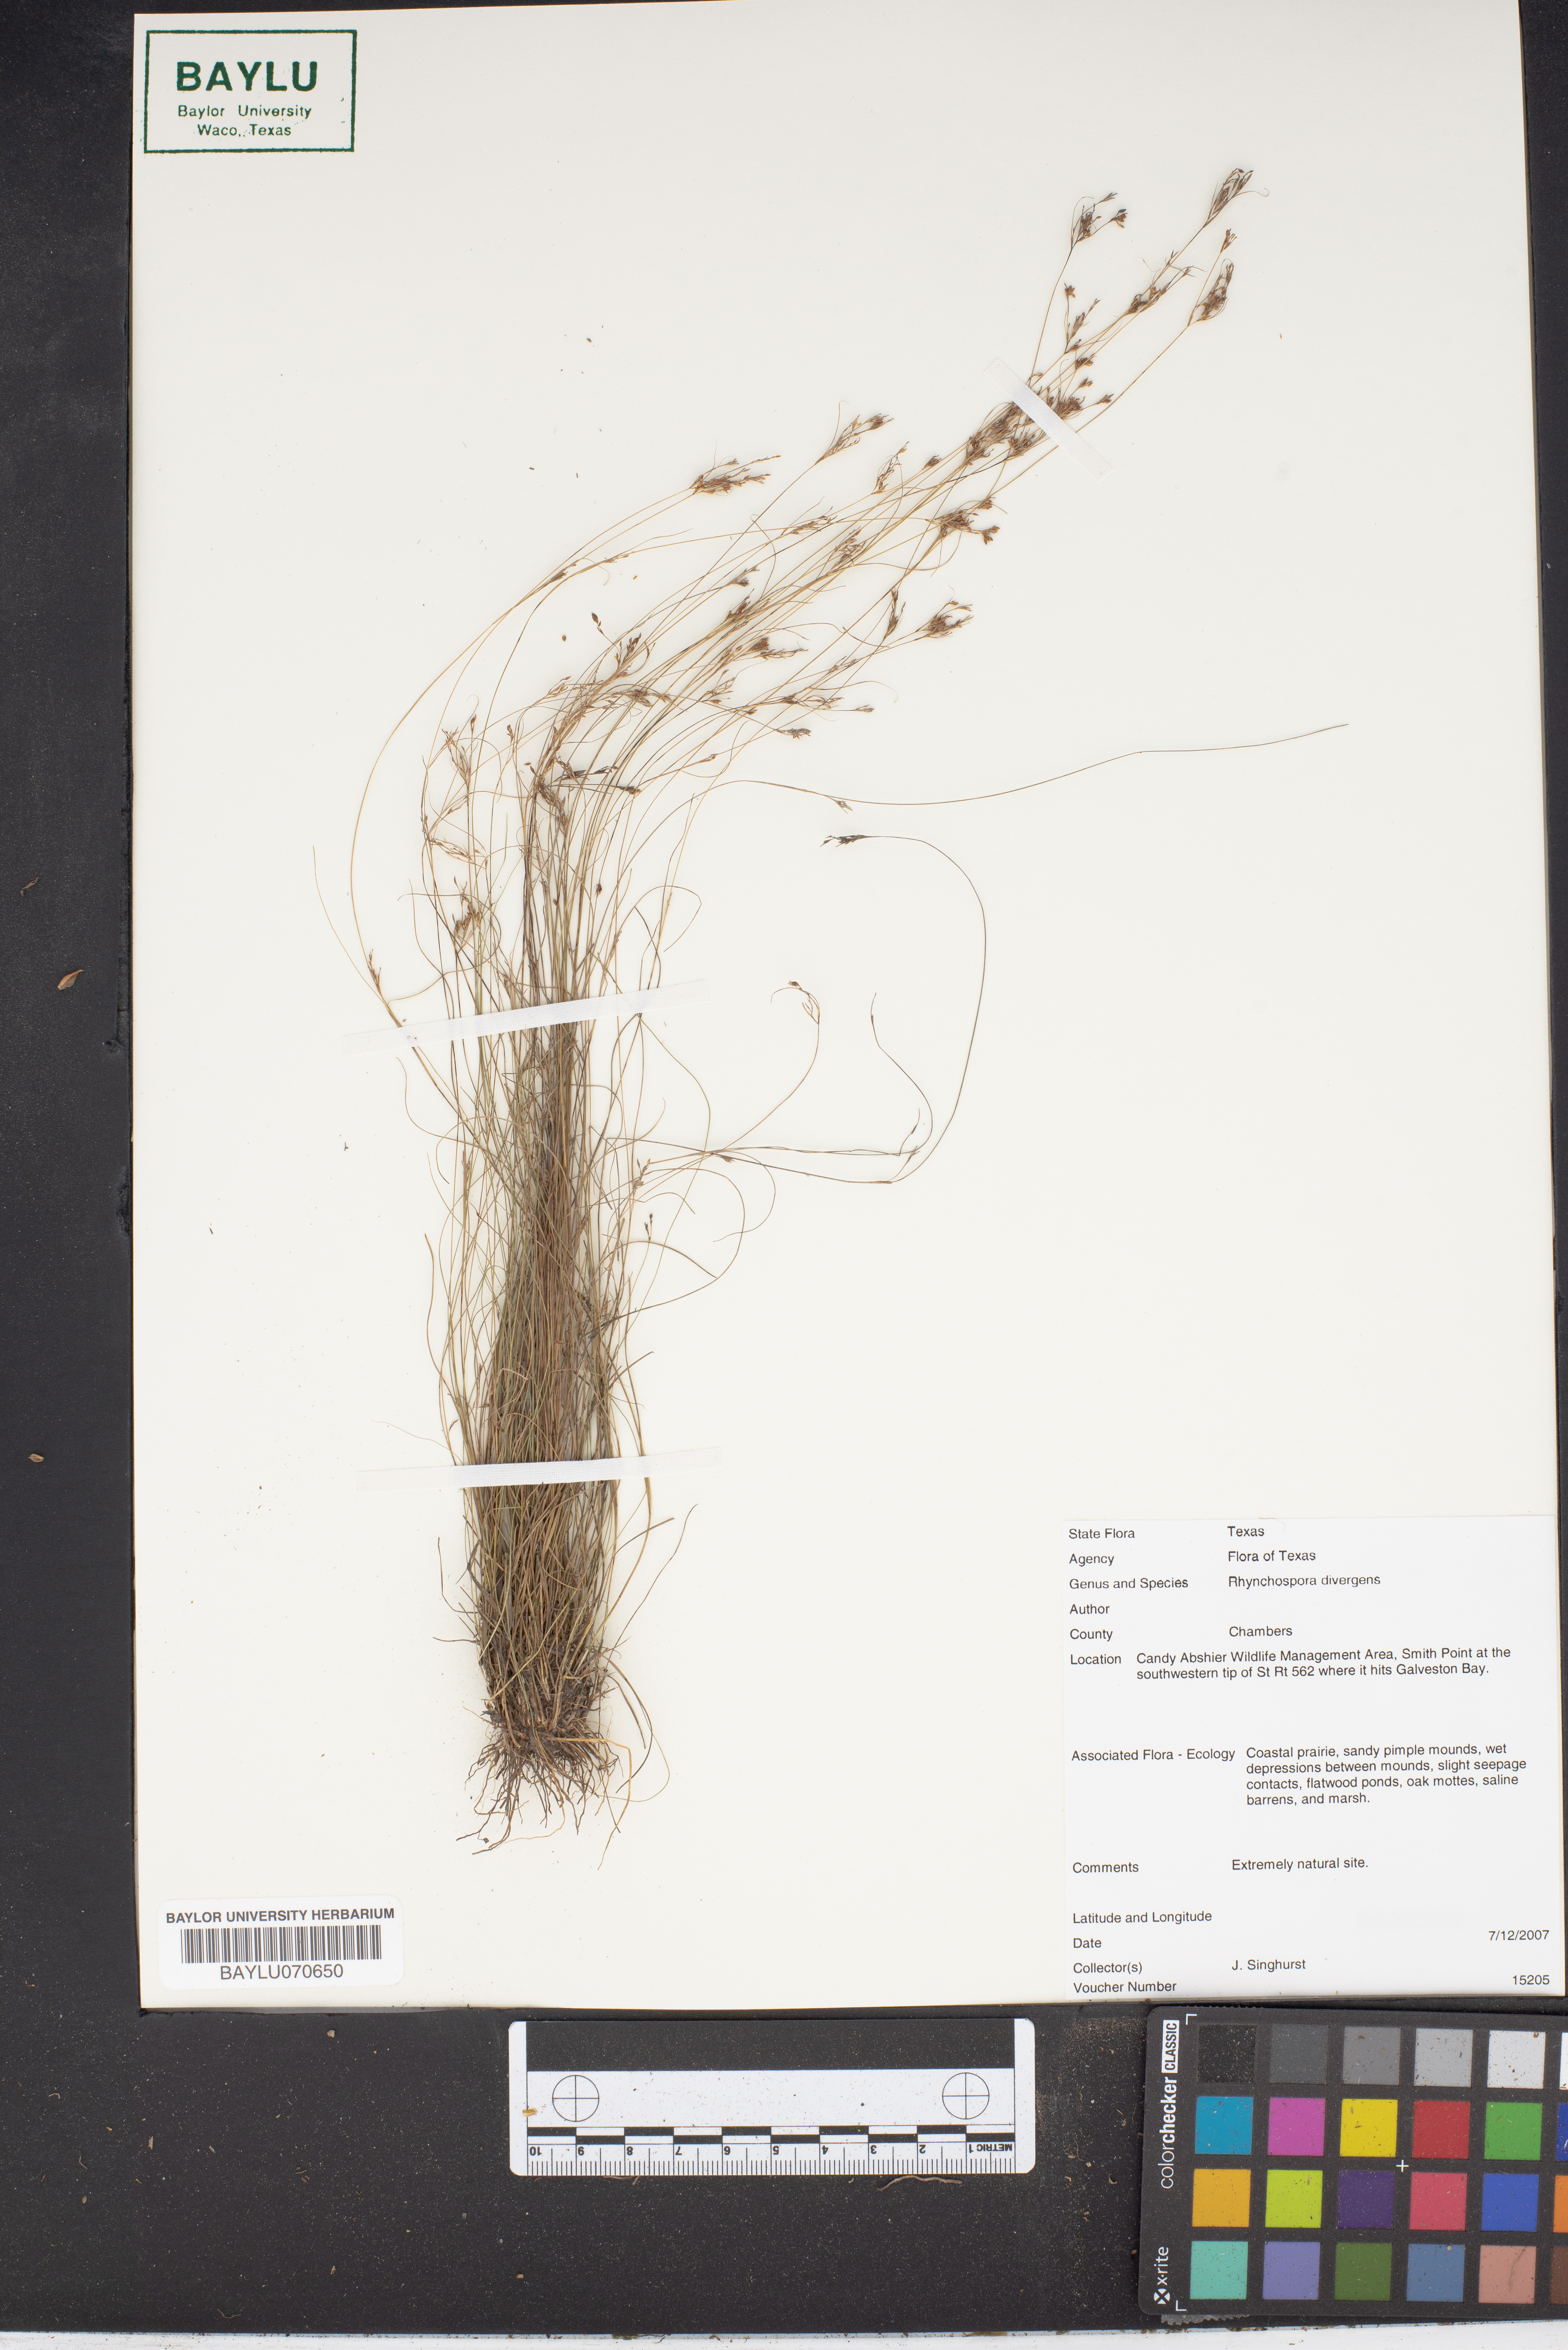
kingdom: Plantae
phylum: Tracheophyta
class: Liliopsida
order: Poales
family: Cyperaceae
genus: Rhynchospora
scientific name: Rhynchospora divergens
